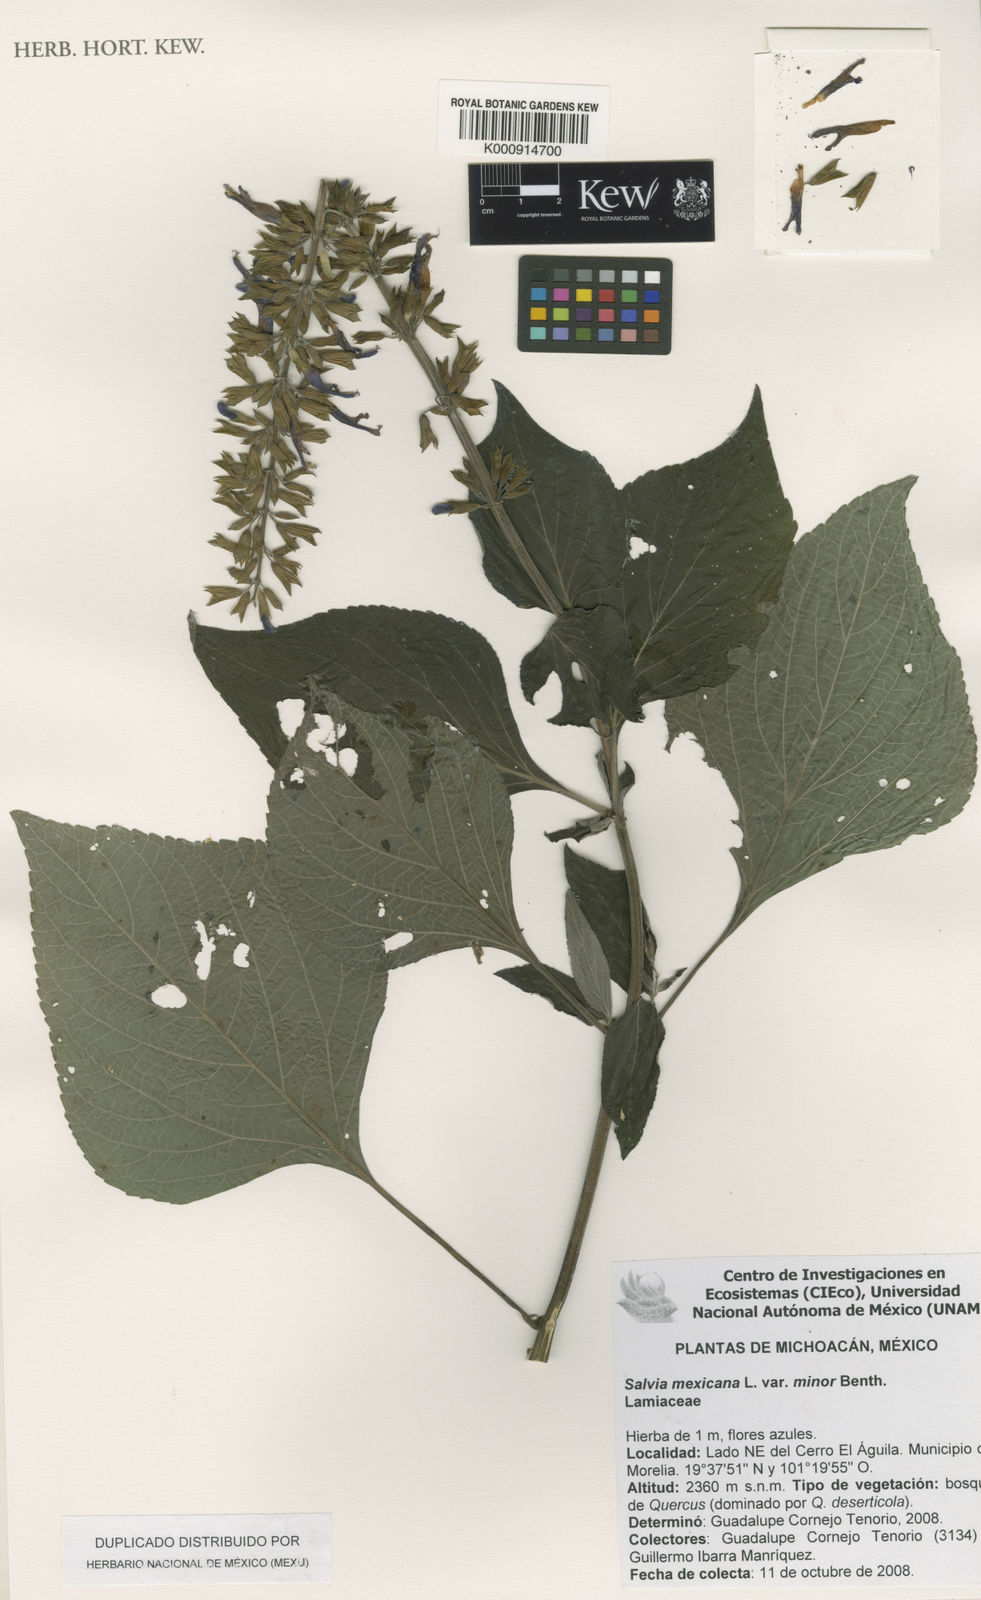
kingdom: Plantae
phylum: Tracheophyta
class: Magnoliopsida
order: Lamiales
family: Lamiaceae
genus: Salvia
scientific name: Salvia mexicana
